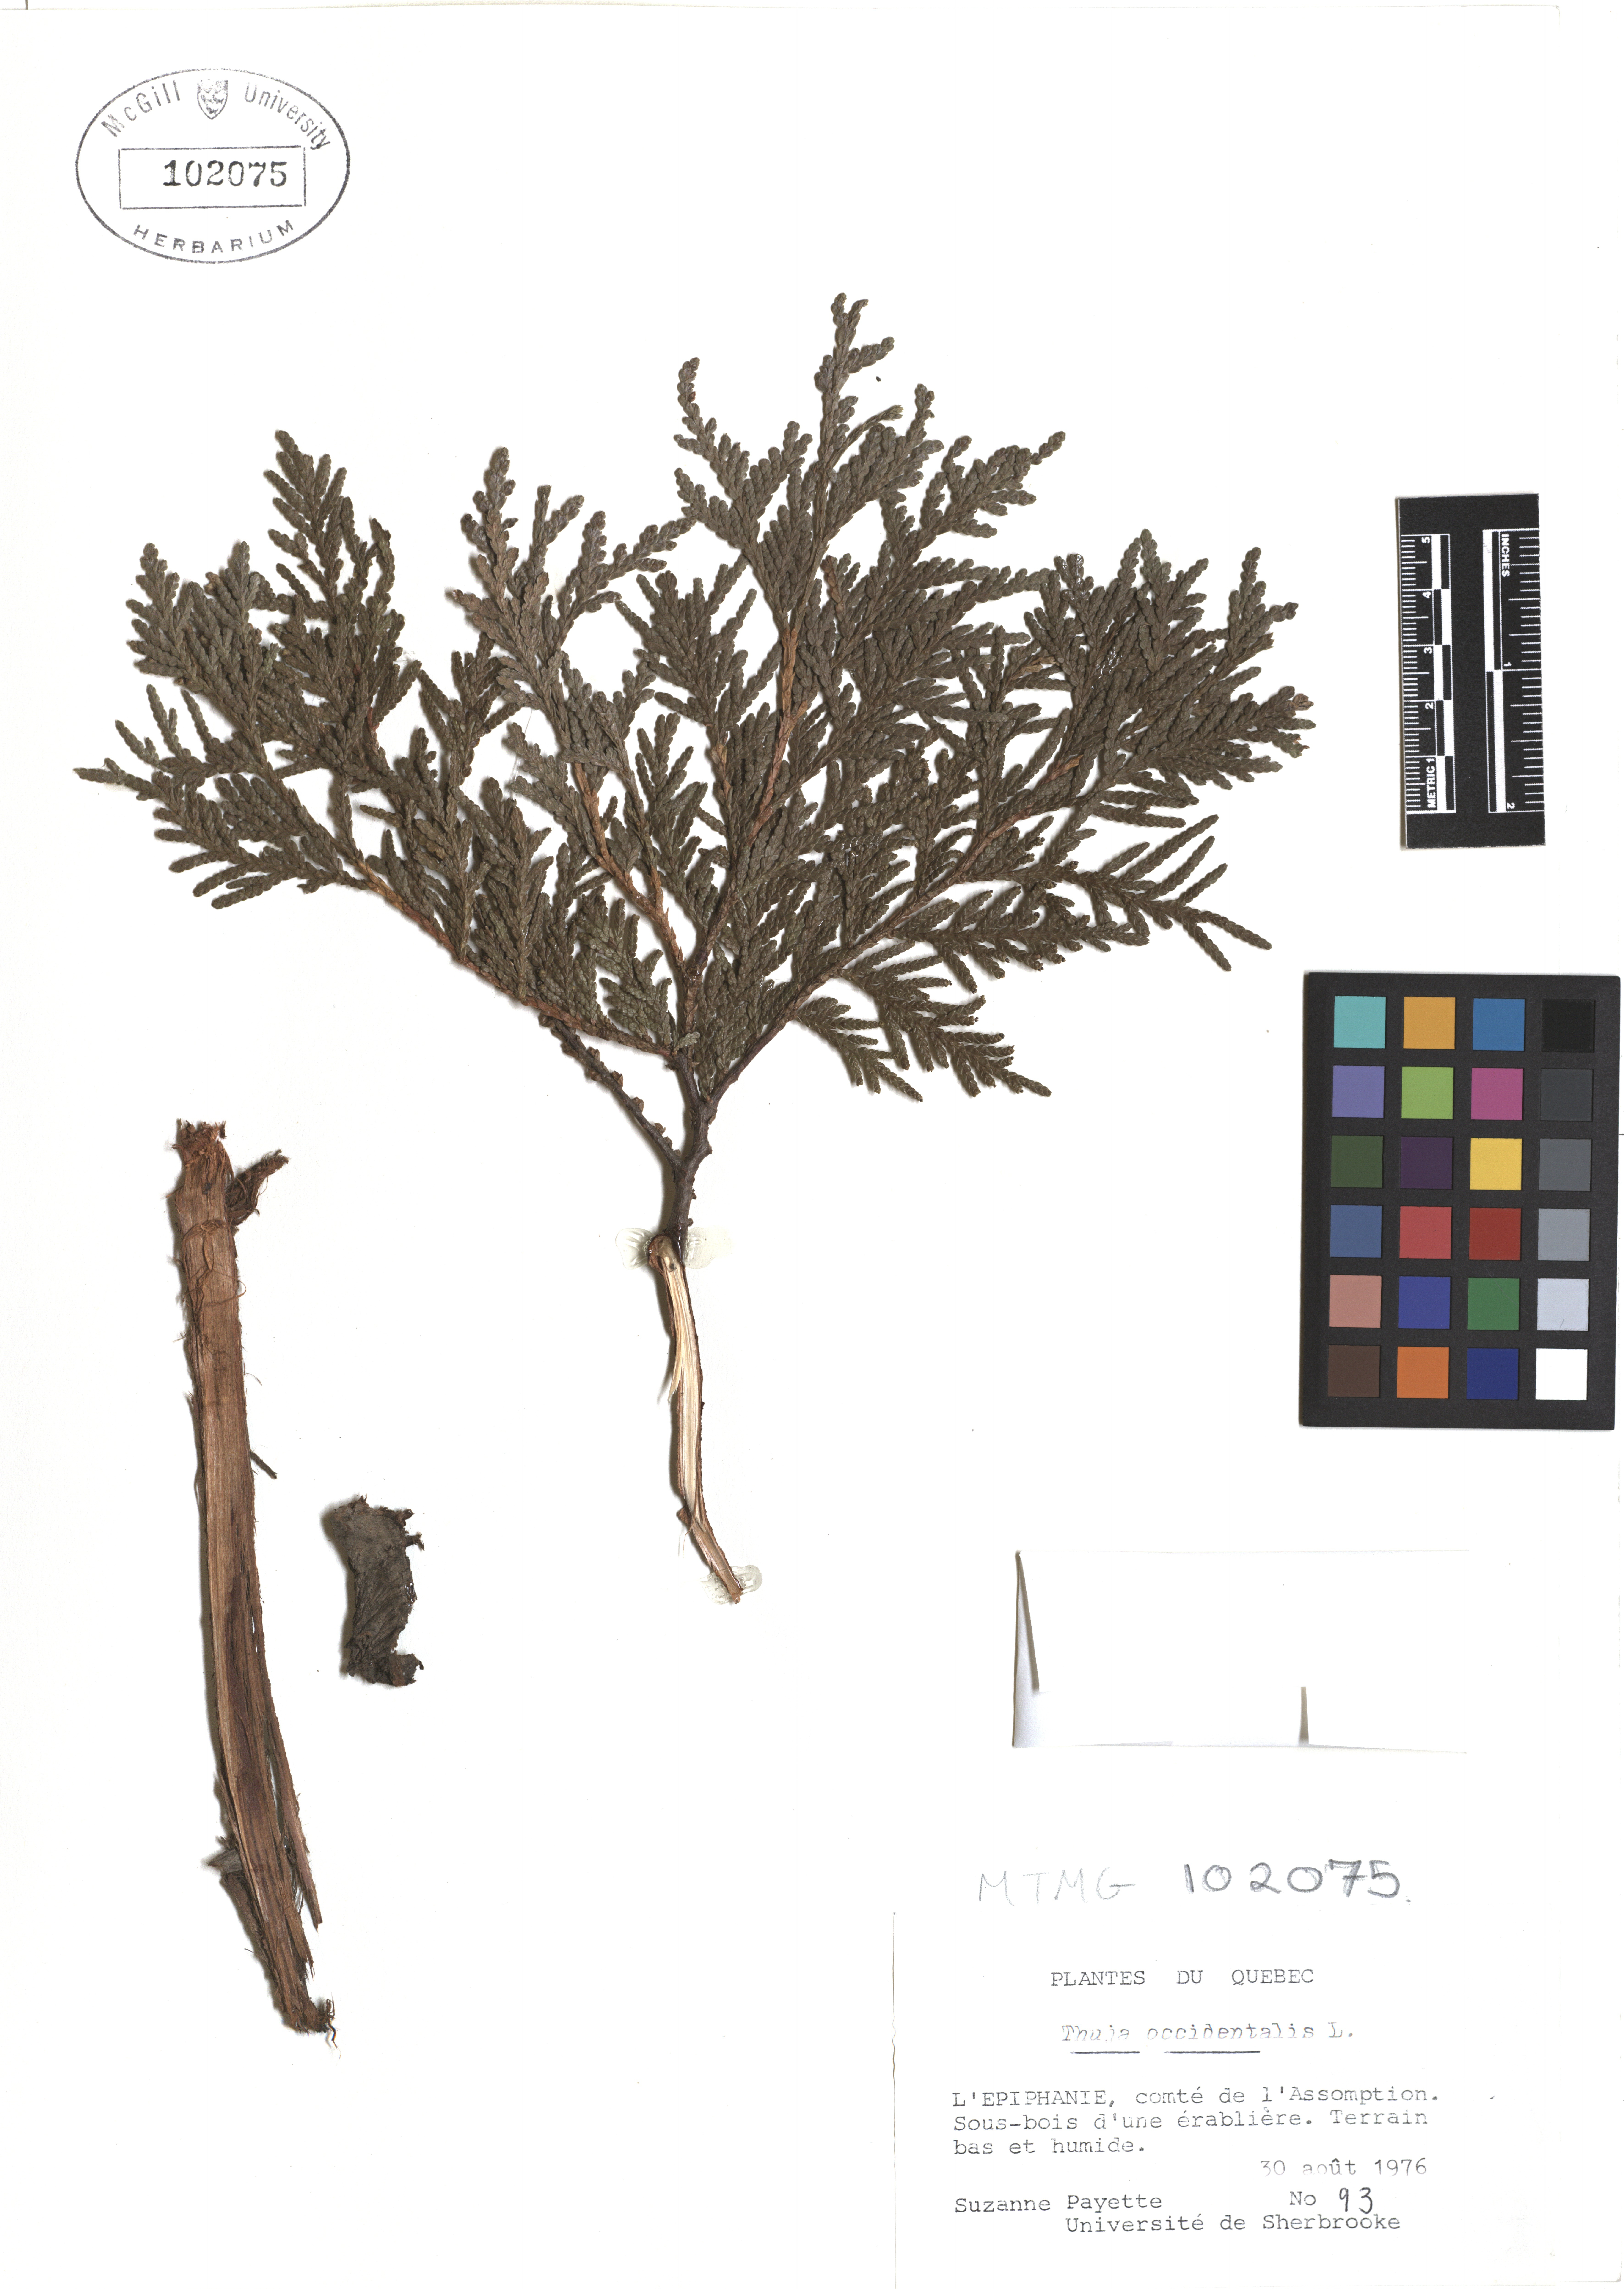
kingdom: Plantae
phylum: Tracheophyta
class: Pinopsida
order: Pinales
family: Cupressaceae
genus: Thuja
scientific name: Thuja occidentalis
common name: Northern white-cedar
